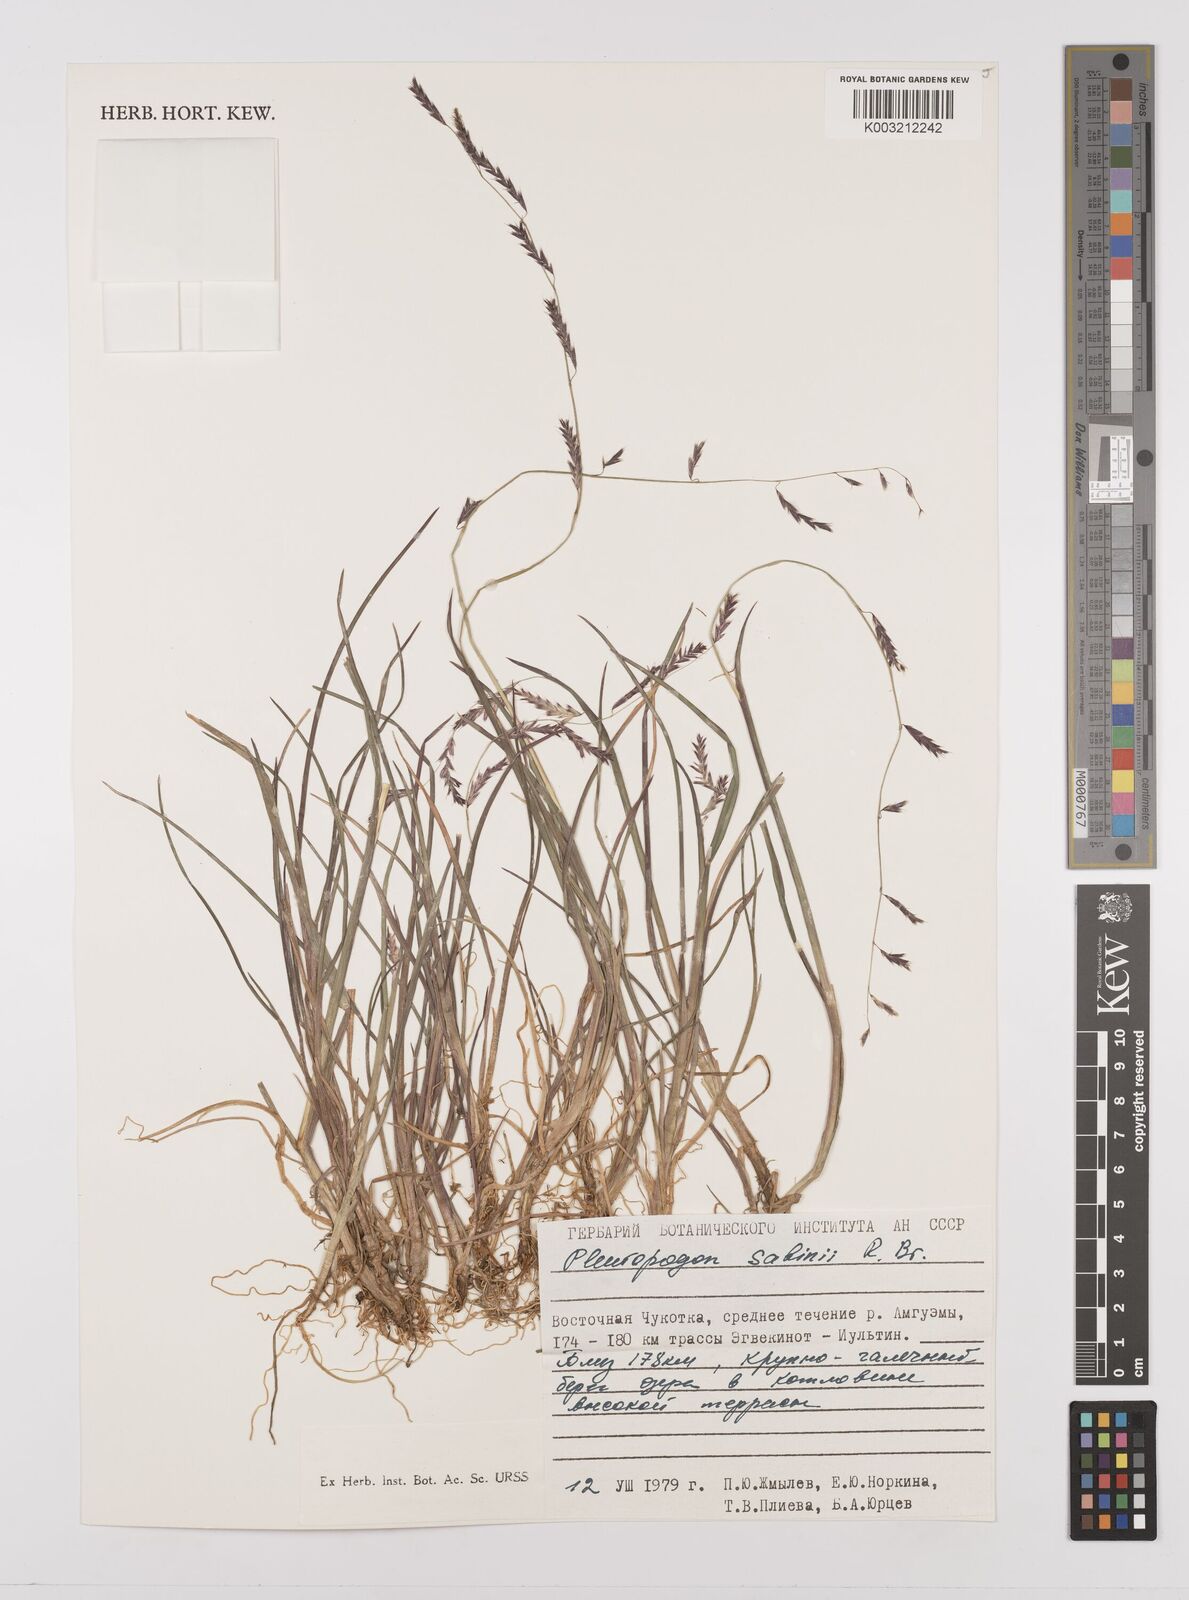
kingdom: Plantae
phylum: Tracheophyta
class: Liliopsida
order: Poales
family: Poaceae
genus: Pleuropogon
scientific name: Pleuropogon sabinei
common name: Sabine's false semaphoregrass
